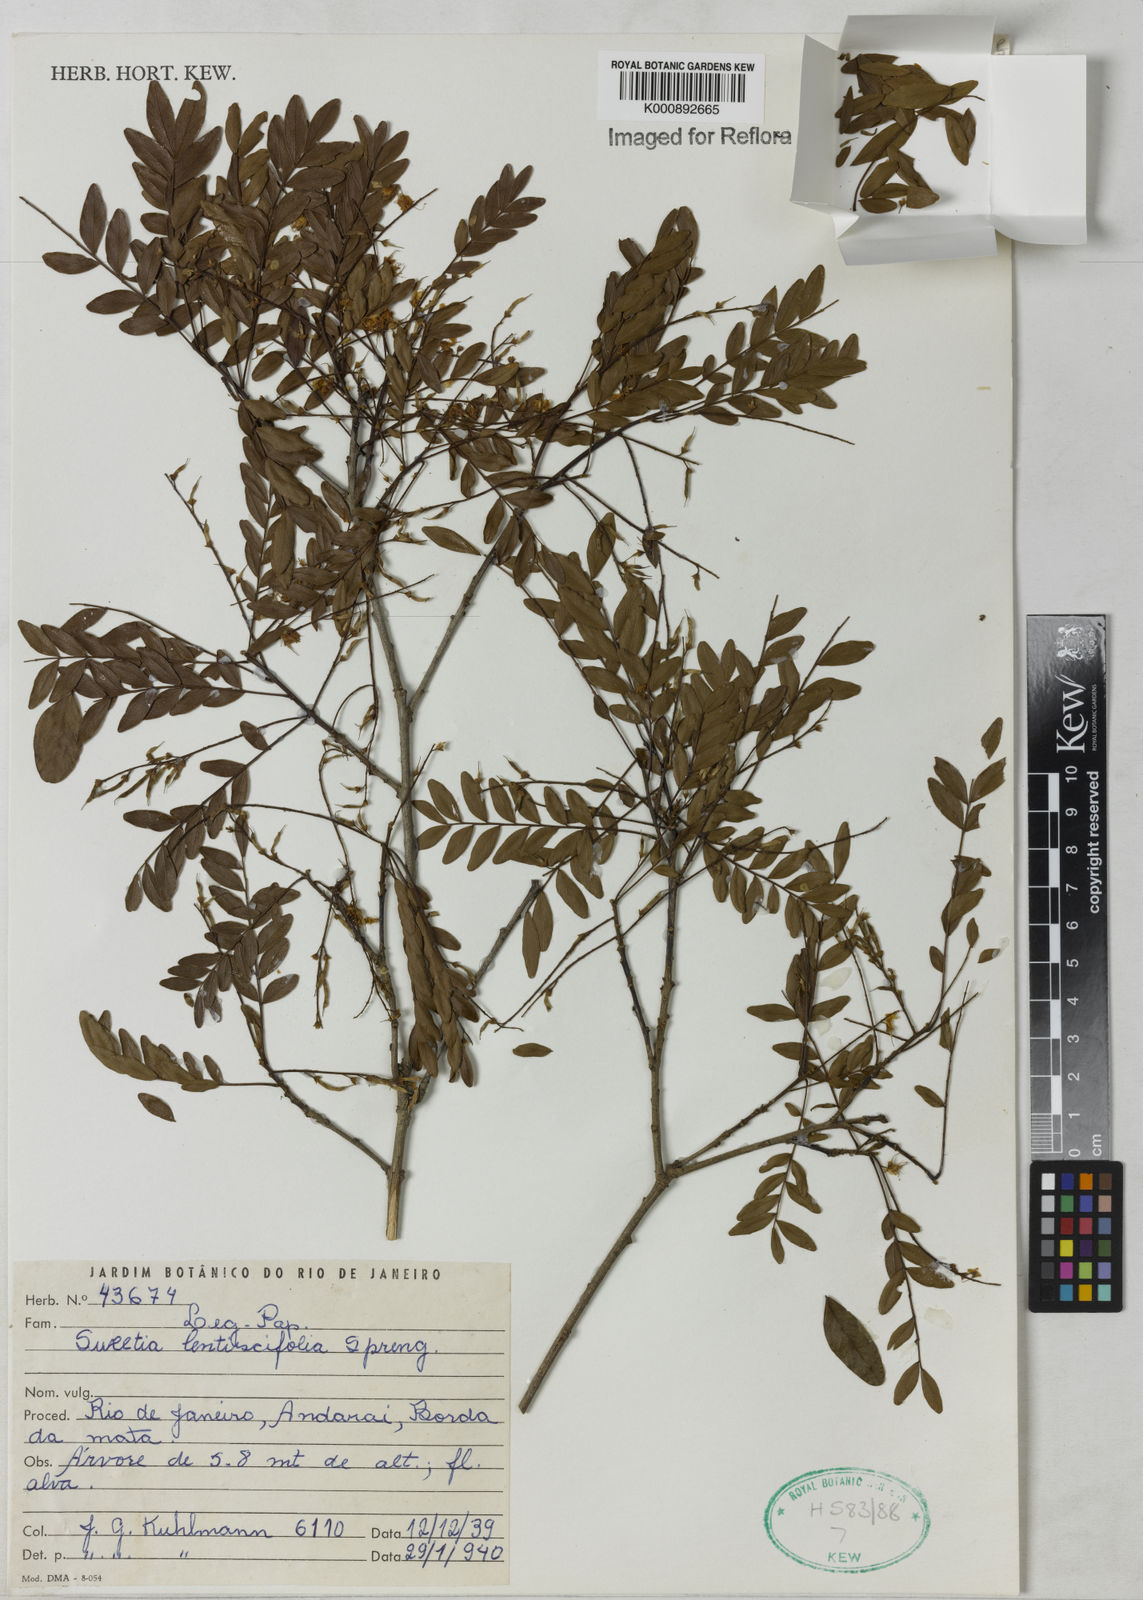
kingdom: Plantae
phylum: Tracheophyta
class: Magnoliopsida
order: Fabales
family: Fabaceae
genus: Acosmium
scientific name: Acosmium lentiscifolium
